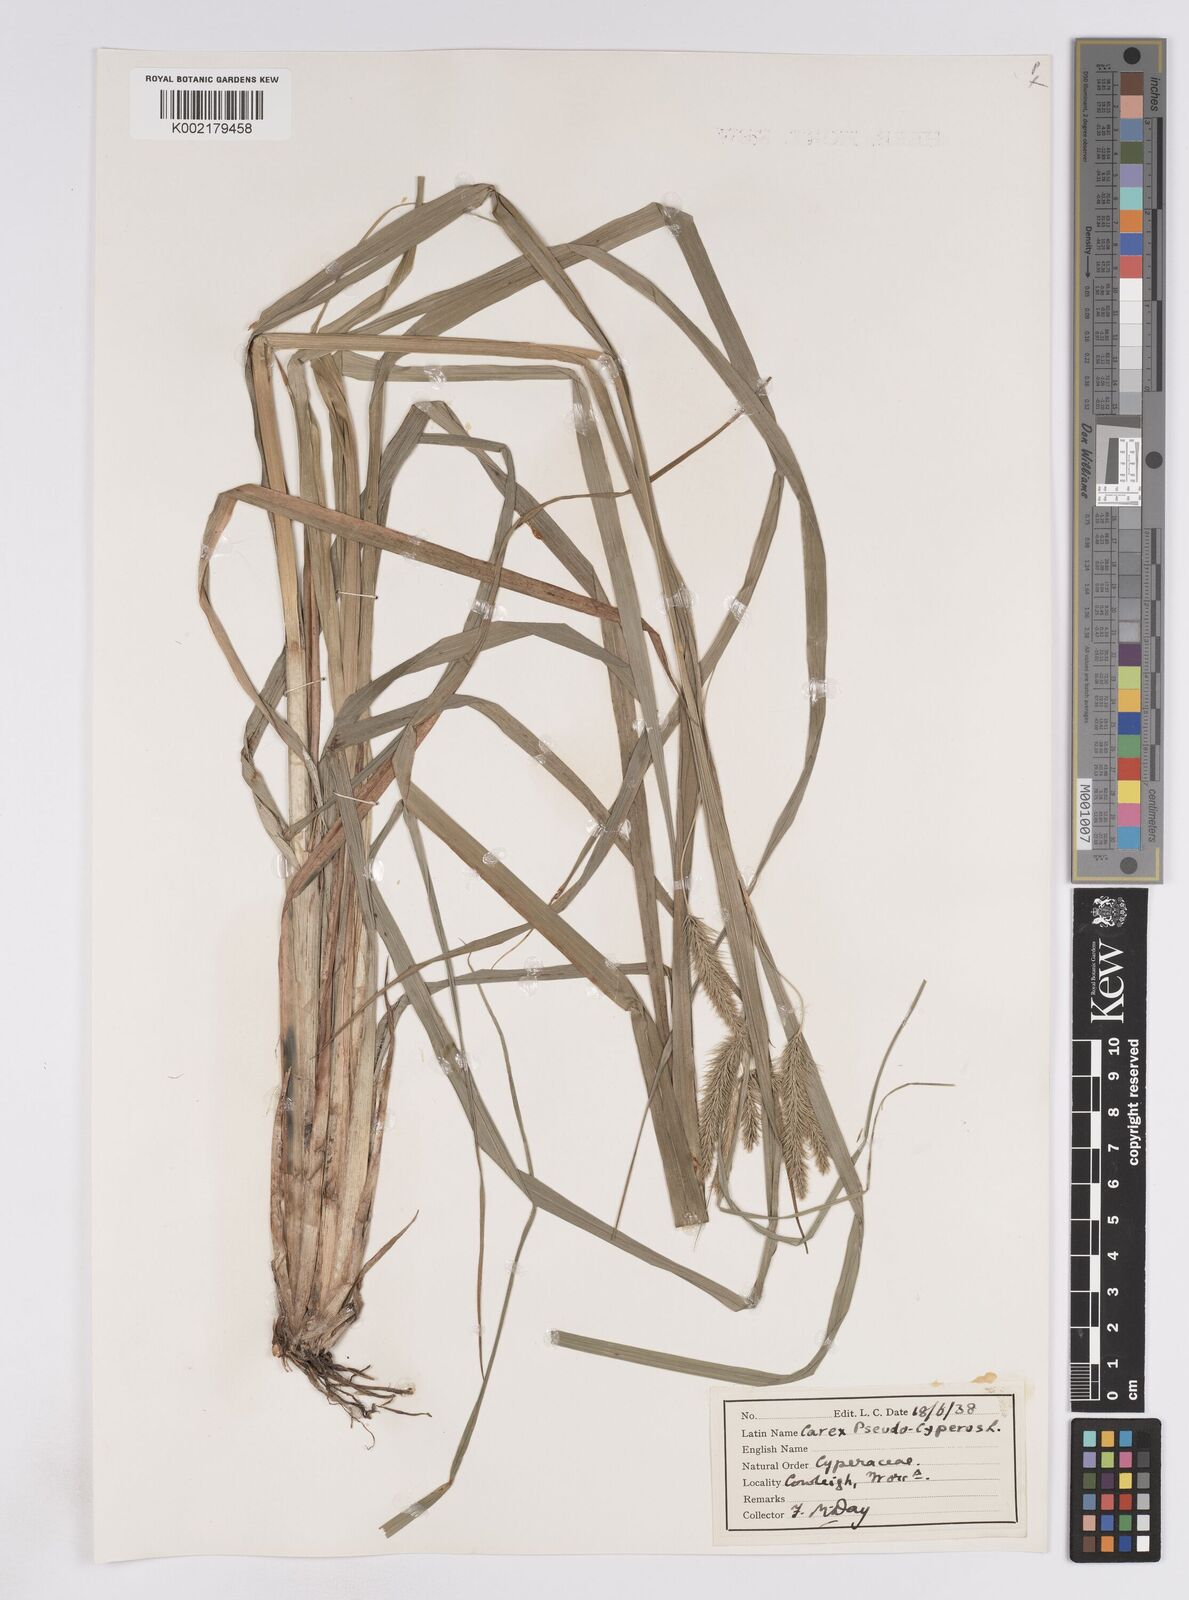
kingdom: Plantae
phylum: Tracheophyta
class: Liliopsida
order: Poales
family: Cyperaceae
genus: Carex
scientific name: Carex pseudocyperus
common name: Cyperus sedge
